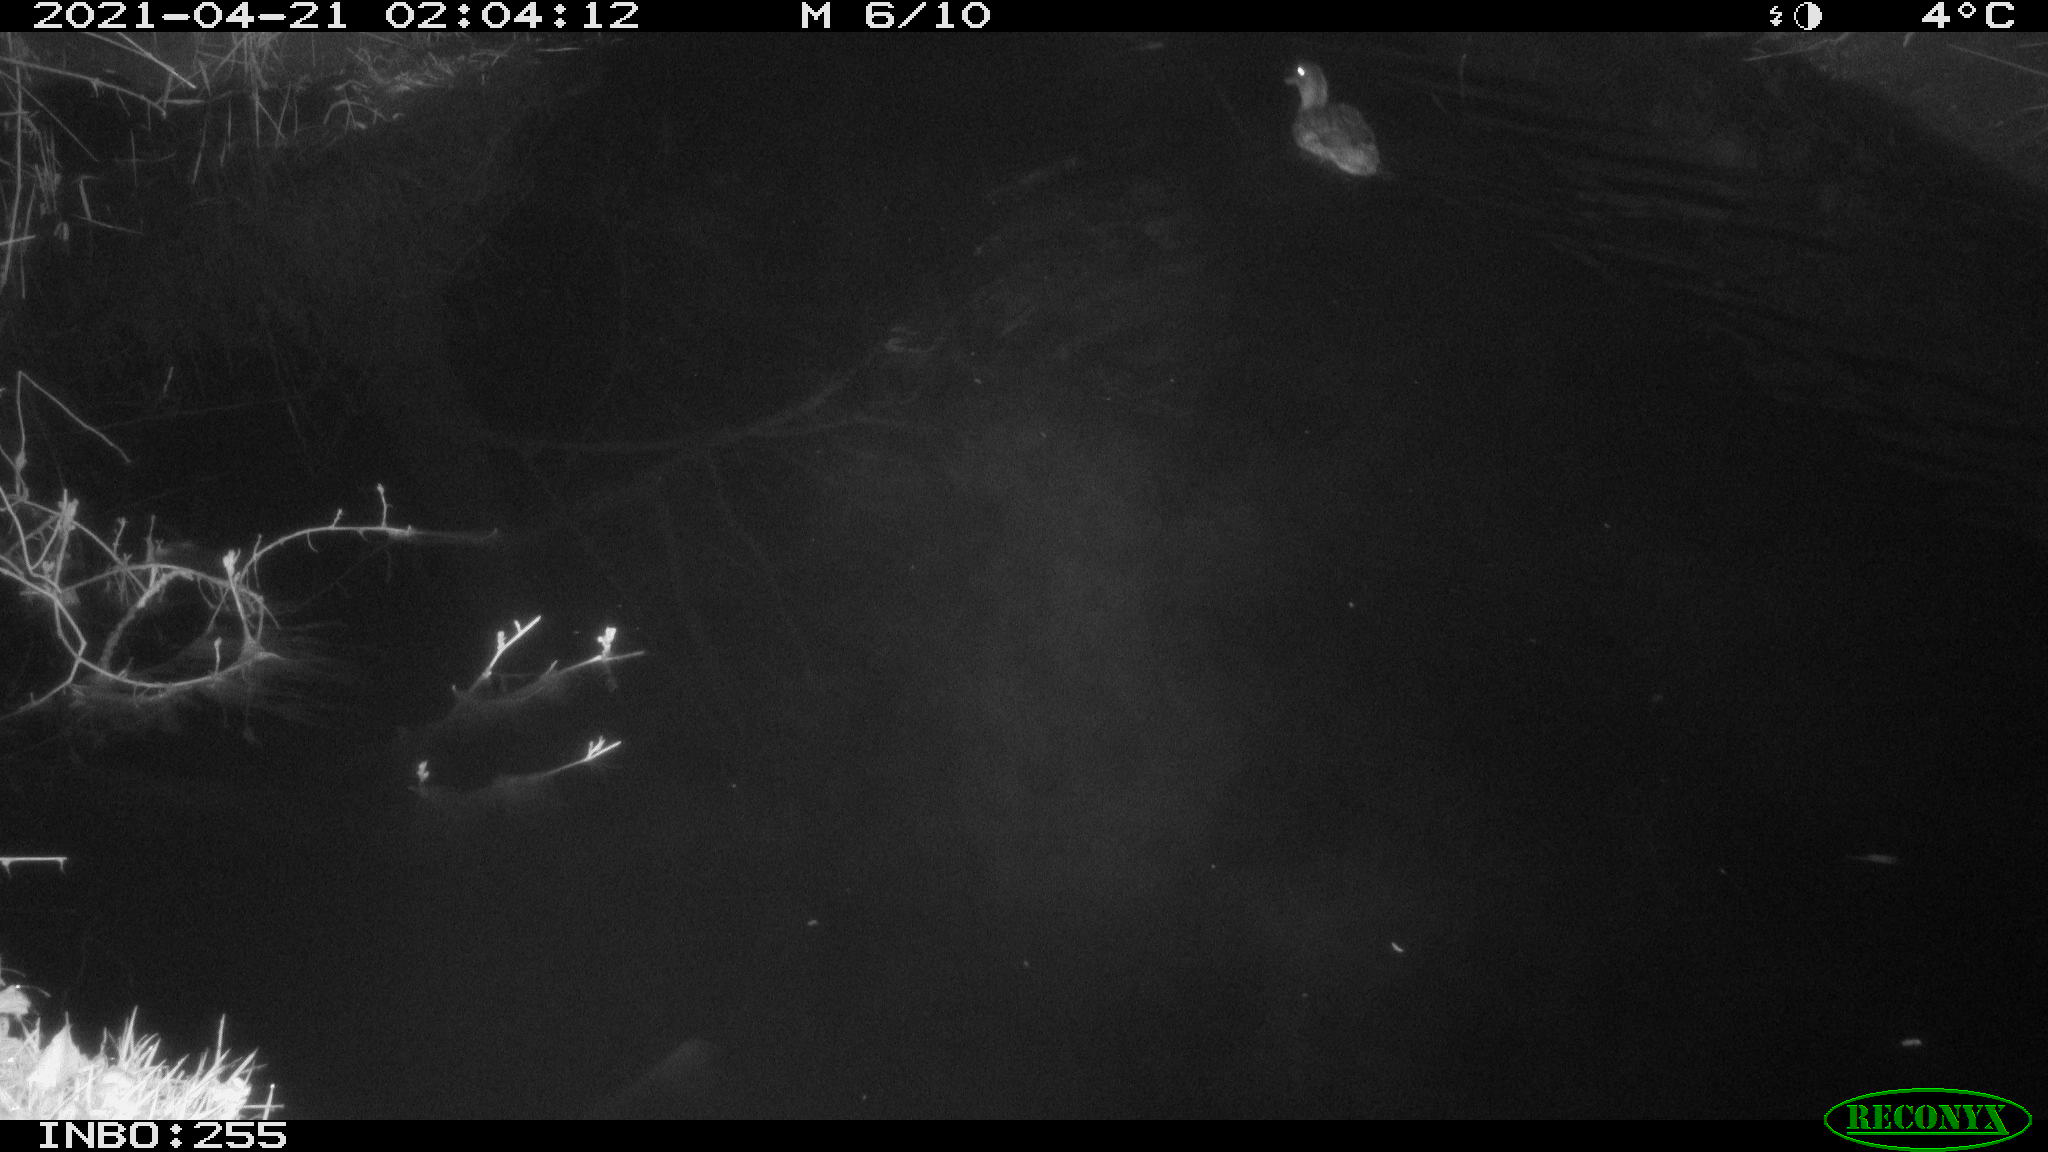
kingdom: Animalia
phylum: Chordata
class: Aves
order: Anseriformes
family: Anatidae
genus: Anas
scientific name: Anas platyrhynchos
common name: Mallard
